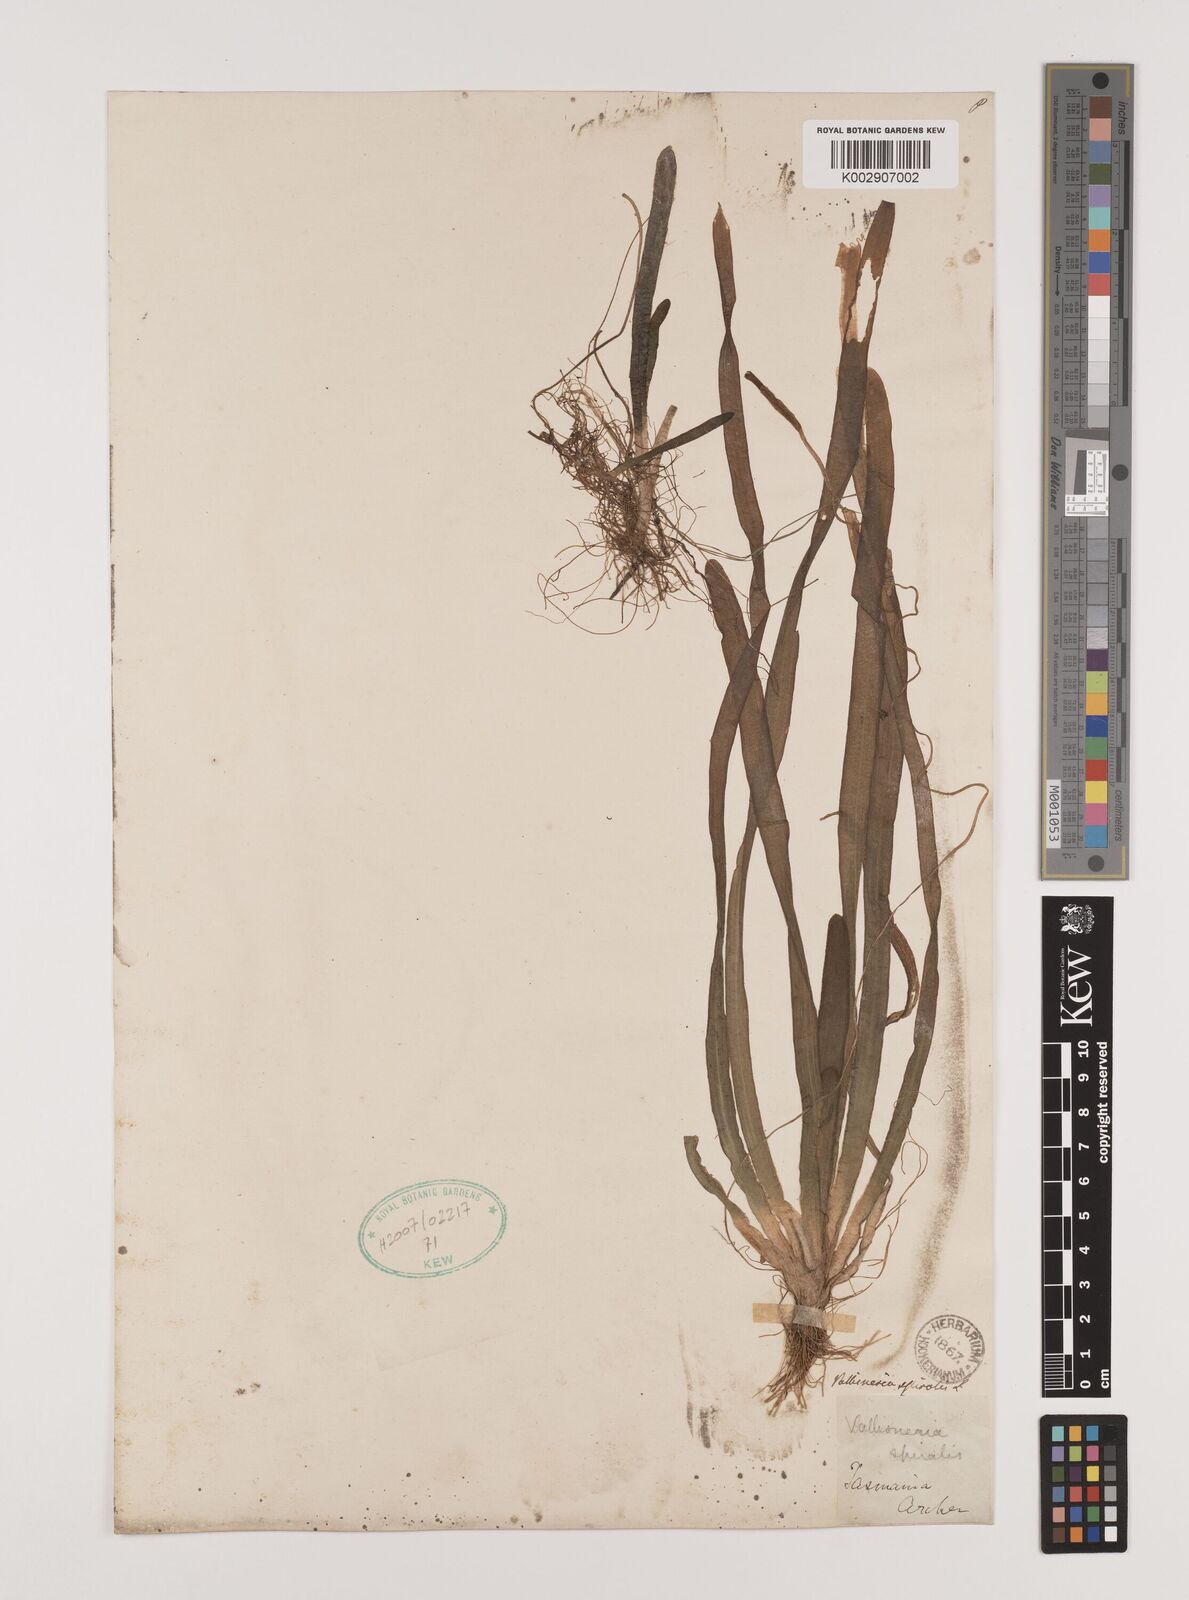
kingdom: Plantae
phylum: Tracheophyta
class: Liliopsida
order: Alismatales
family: Hydrocharitaceae
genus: Vallisneria
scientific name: Vallisneria spiralis
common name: Tapegrass
